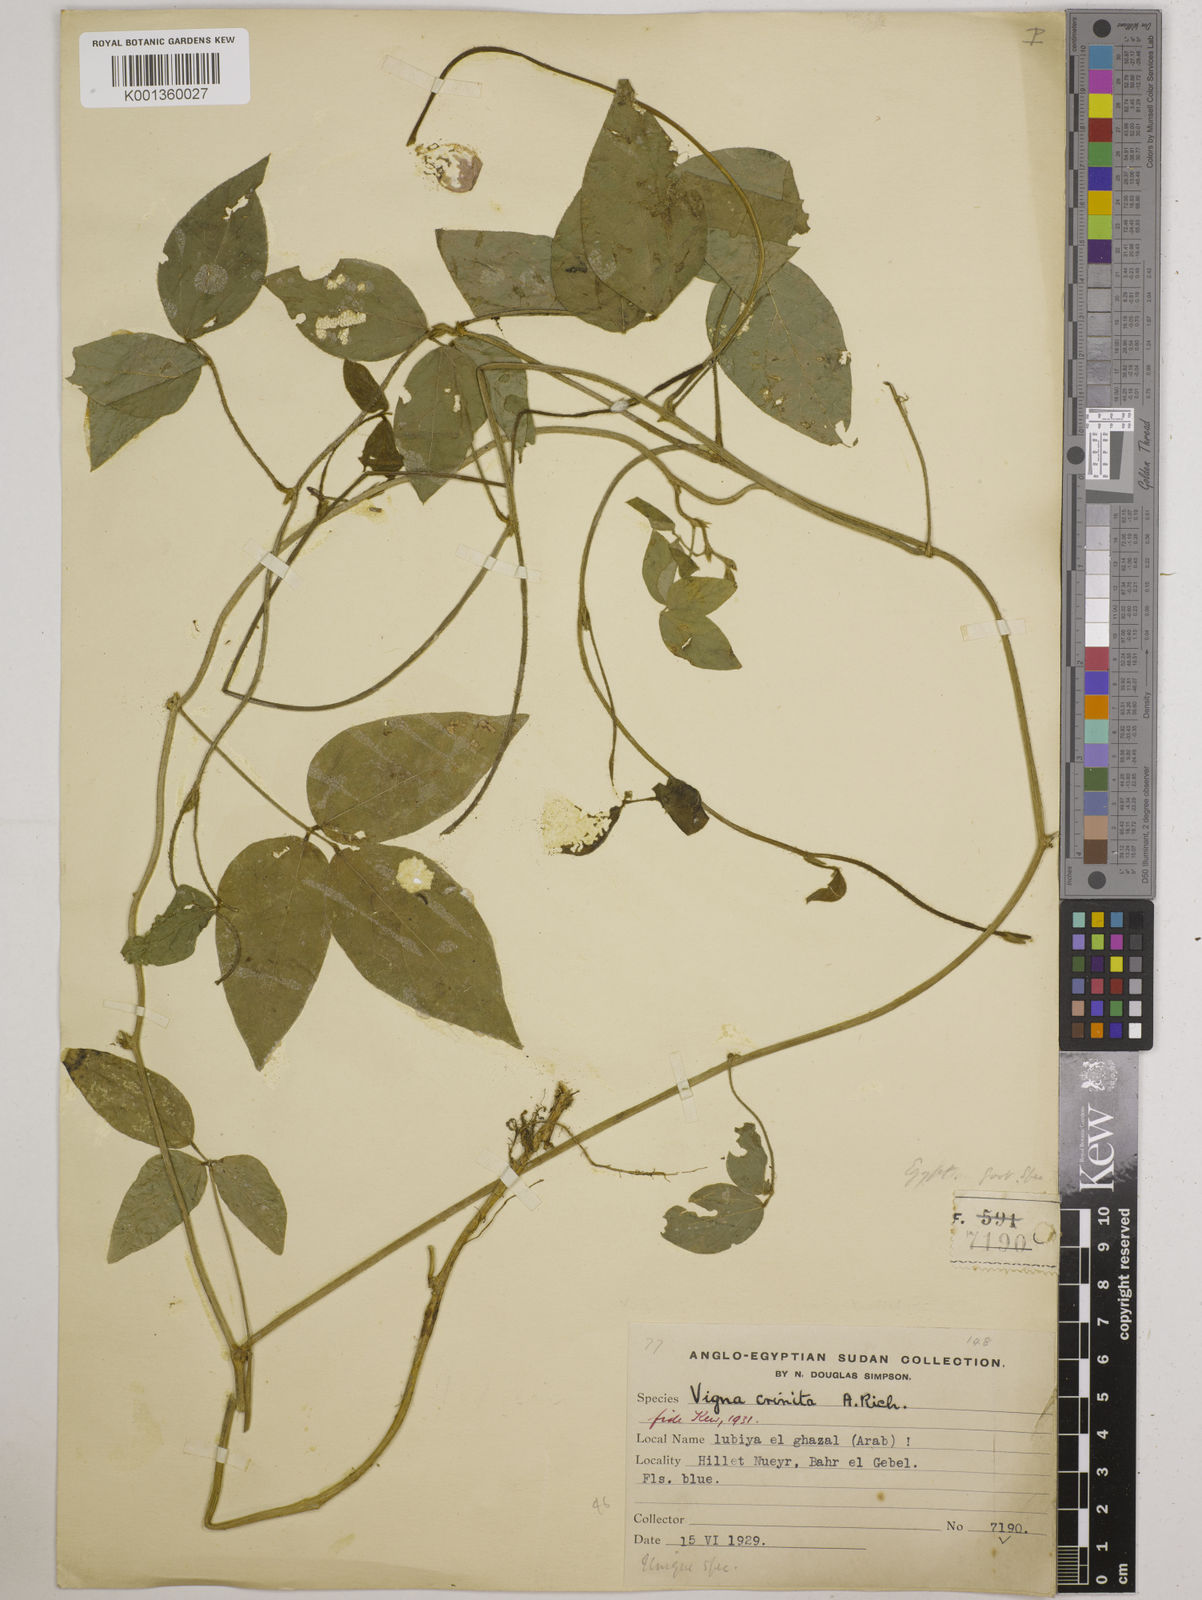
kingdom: Plantae
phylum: Tracheophyta
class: Magnoliopsida
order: Fabales
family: Fabaceae
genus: Vigna
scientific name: Vigna vexillata
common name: Zombi pea
